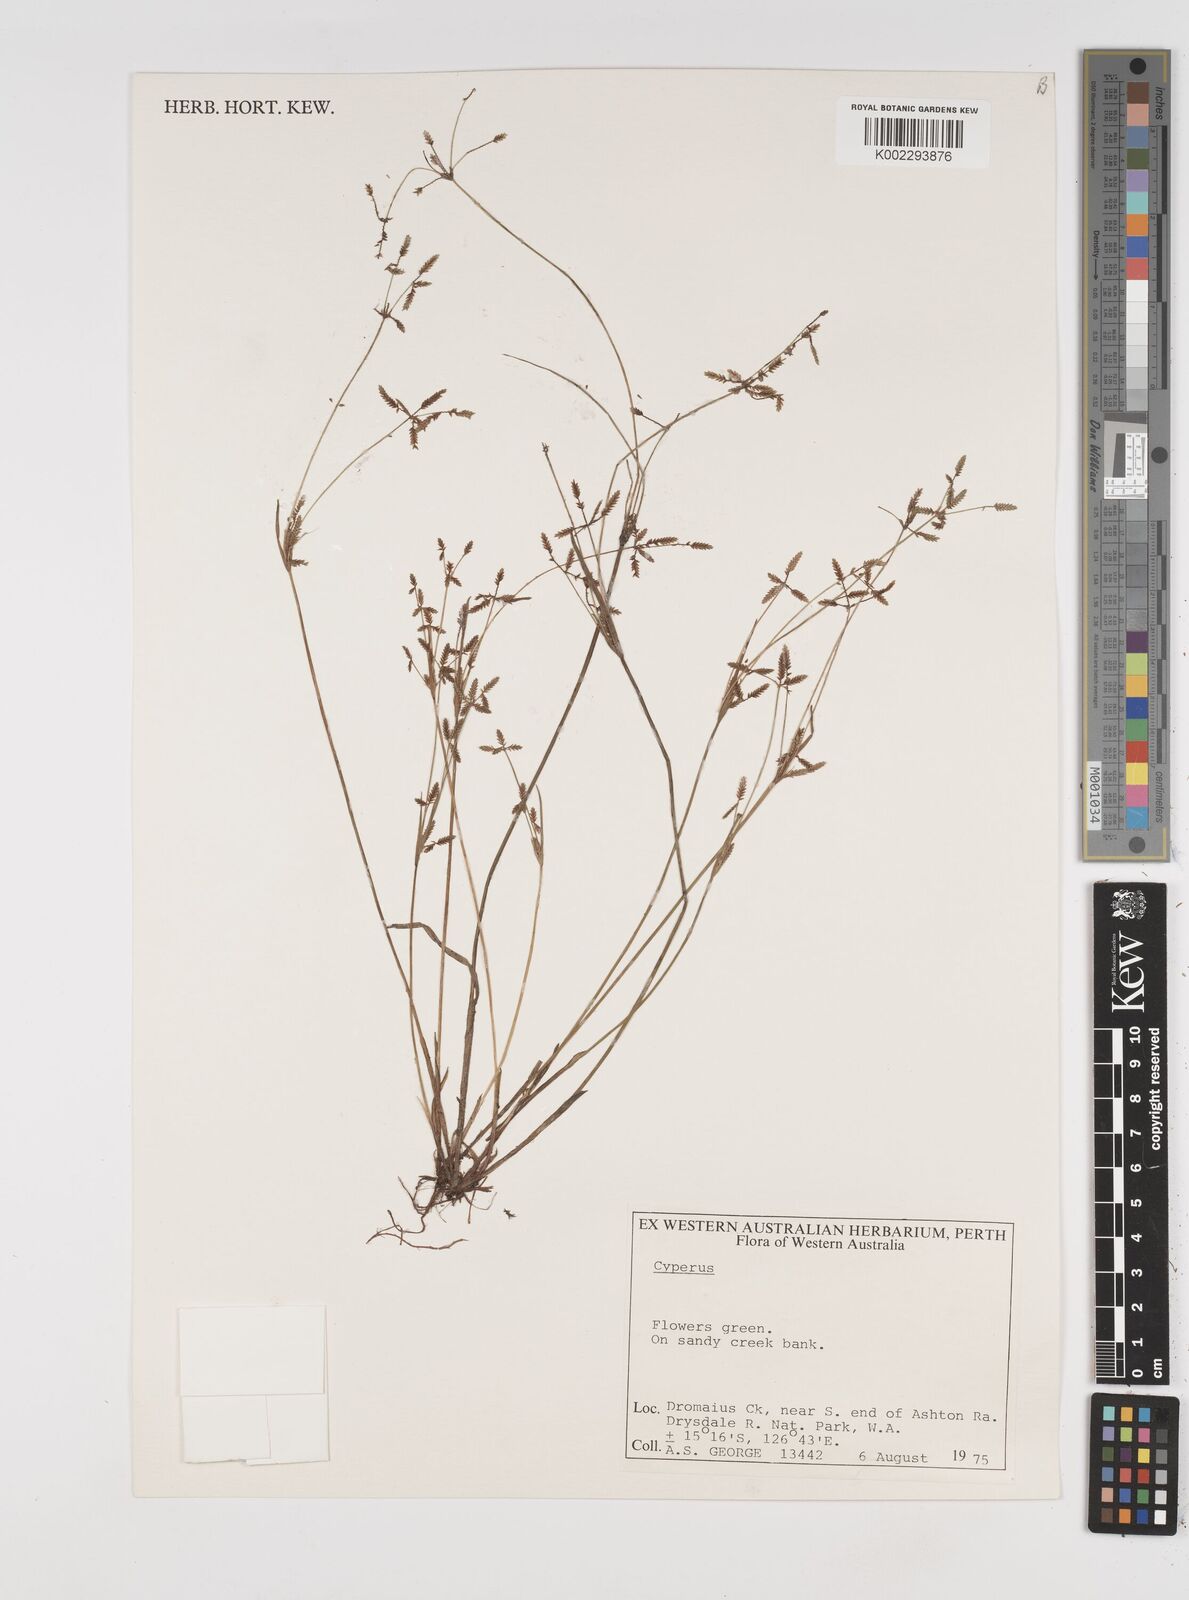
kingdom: Plantae
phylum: Tracheophyta
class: Liliopsida
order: Poales
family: Cyperaceae
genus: Cyperus
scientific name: Cyperus
